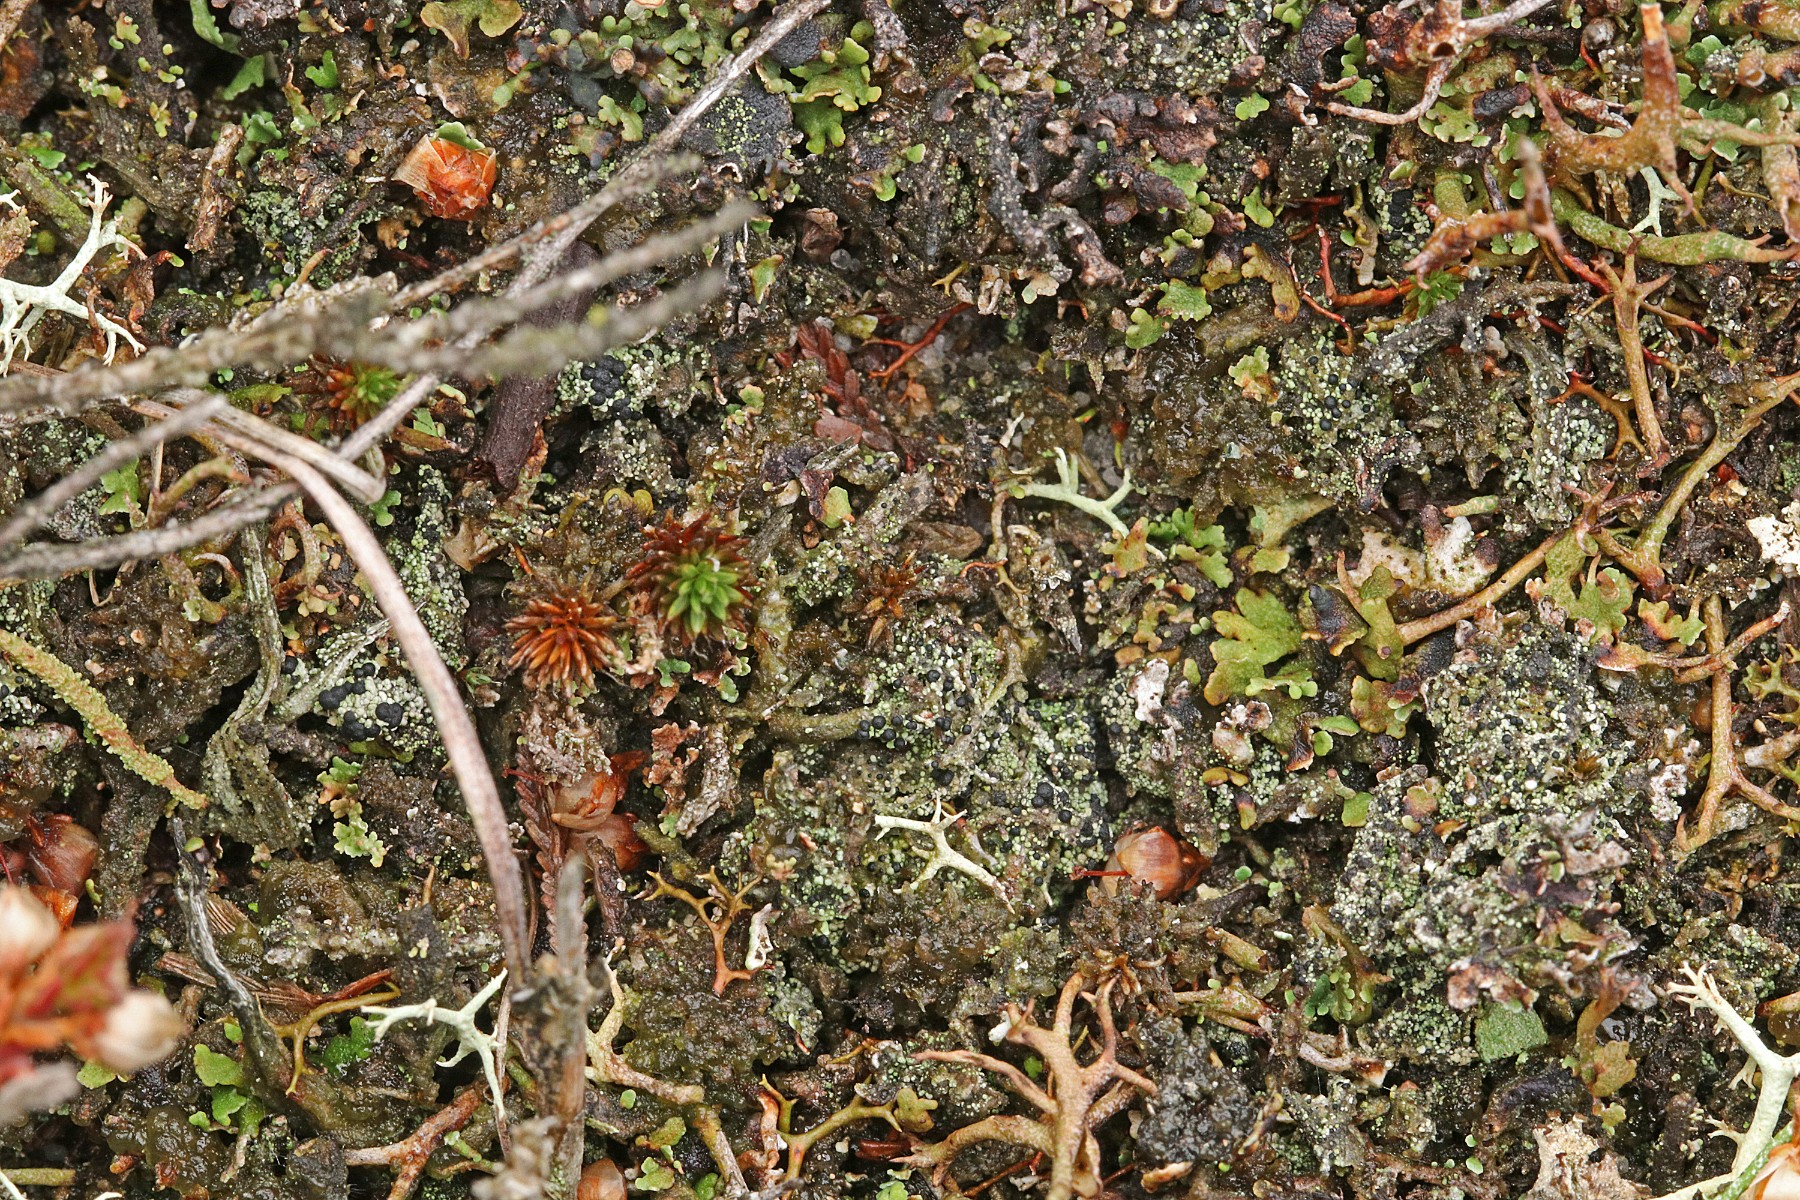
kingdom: Fungi
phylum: Ascomycota
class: Lecanoromycetes
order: Lecanorales
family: Byssolomataceae
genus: Micarea
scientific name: Micarea lignaria
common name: tørve-knaplav
